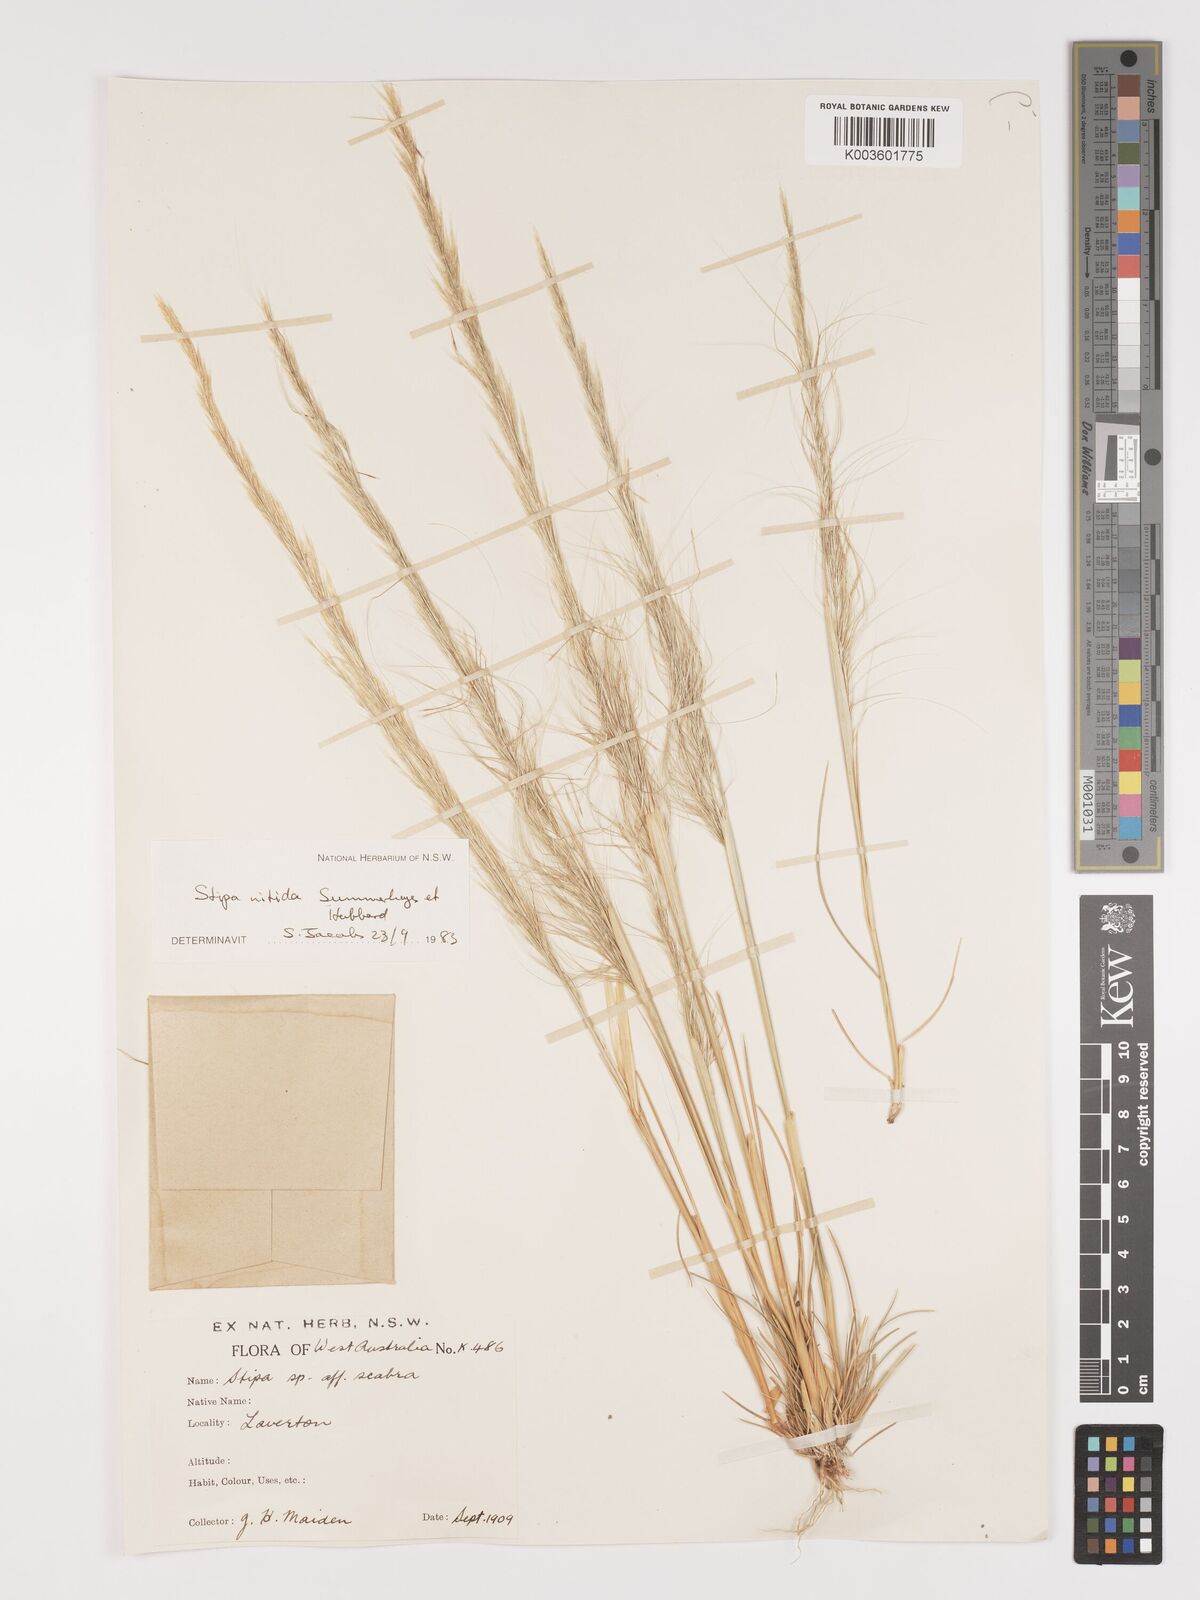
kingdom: Plantae
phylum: Tracheophyta
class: Liliopsida
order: Poales
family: Poaceae
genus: Austrostipa
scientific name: Austrostipa nitida
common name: Balcarra grass
